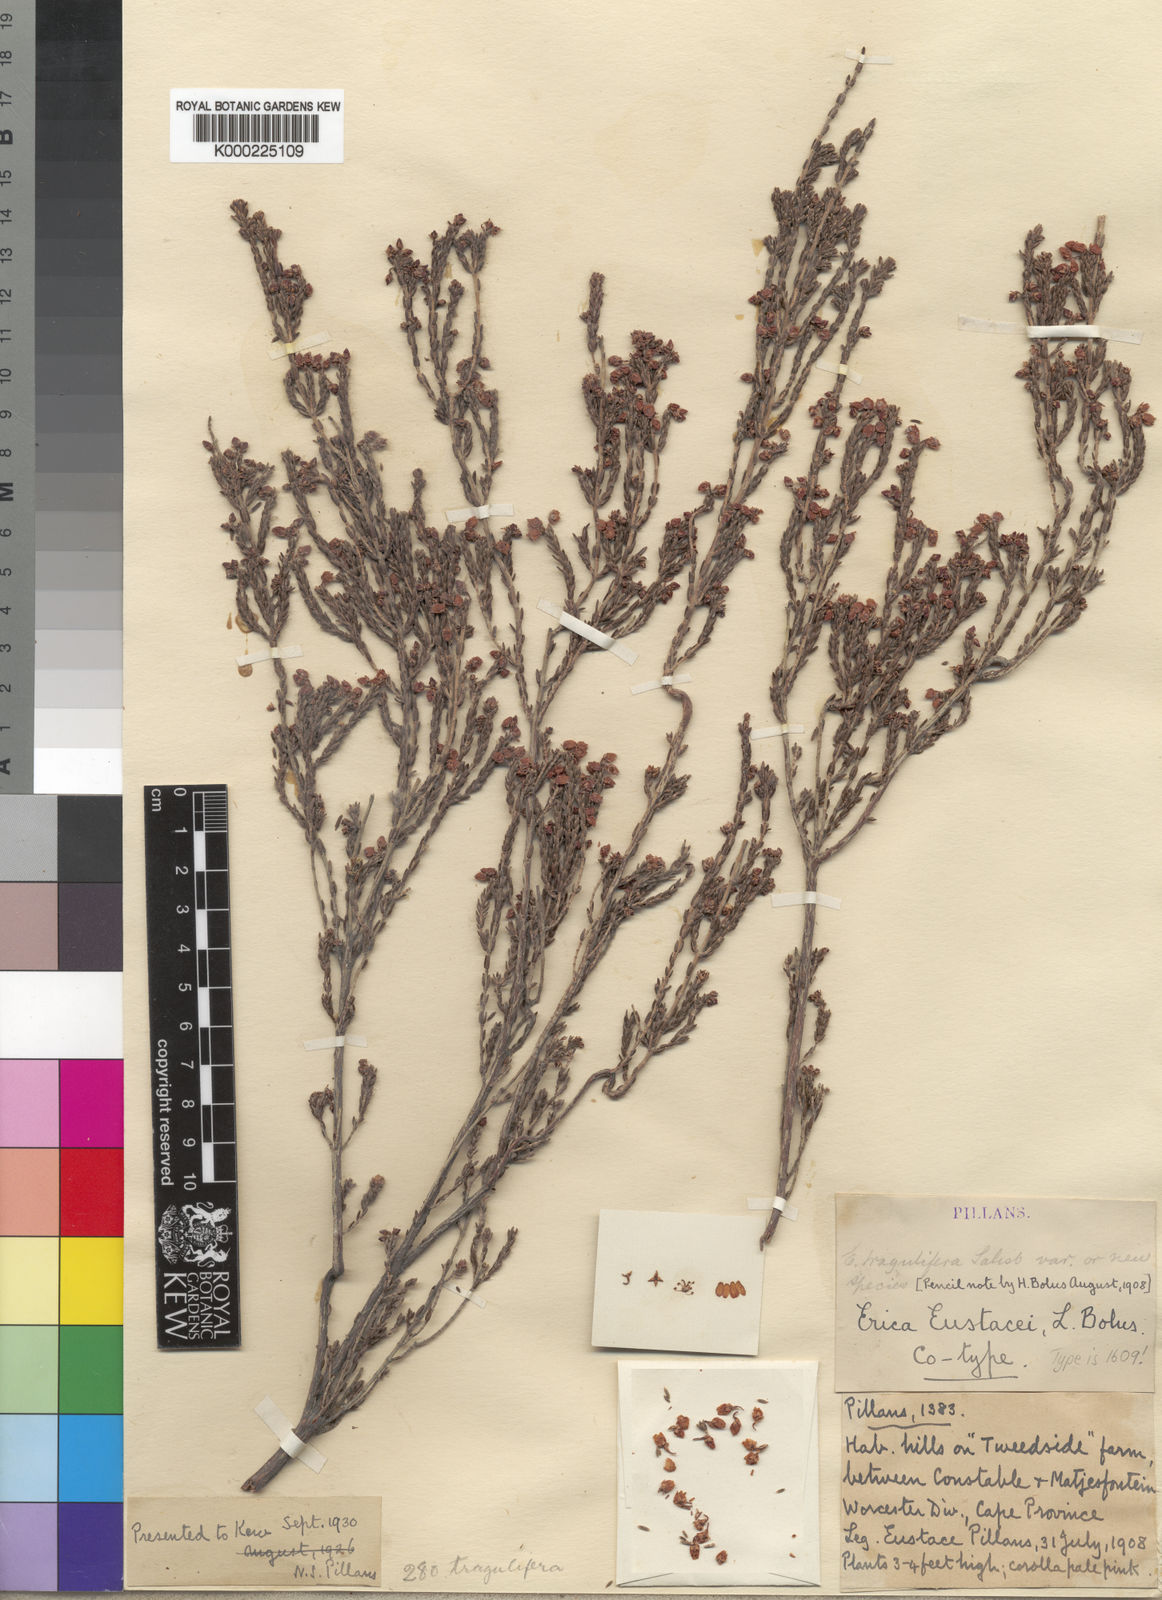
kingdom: Plantae
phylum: Tracheophyta
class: Magnoliopsida
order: Ericales
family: Ericaceae
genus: Erica
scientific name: Erica eustacei
